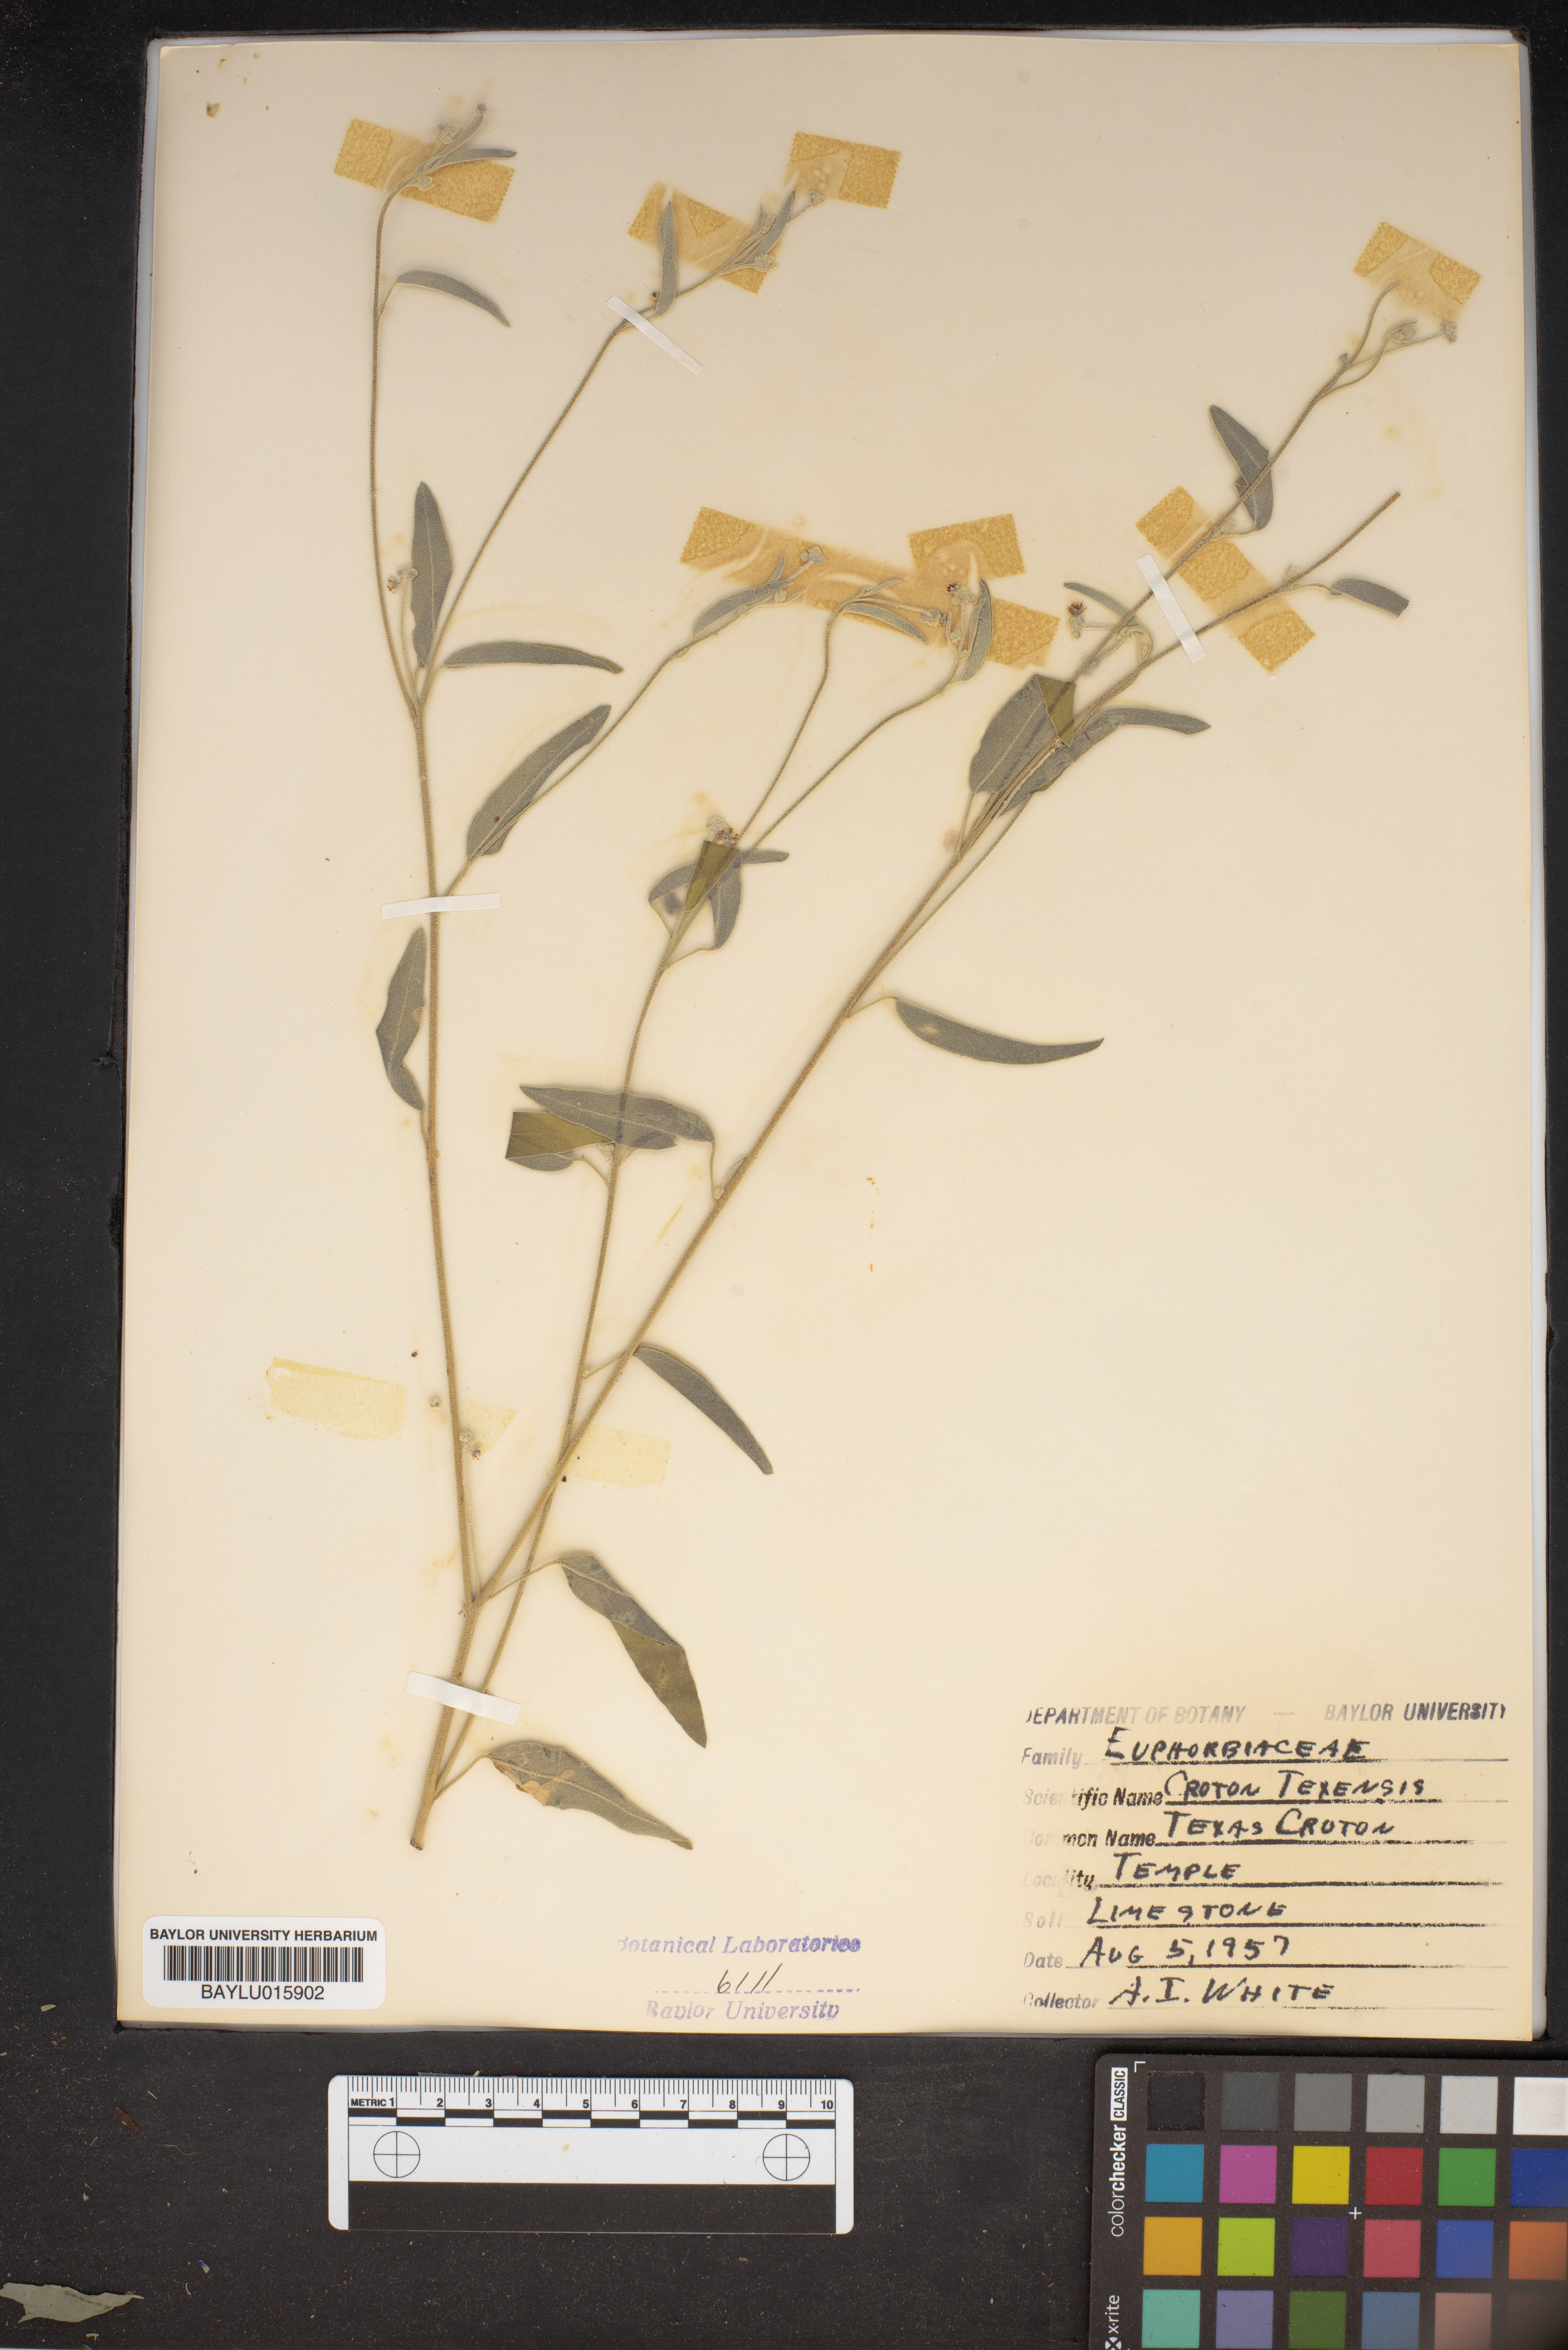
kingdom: Plantae
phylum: Tracheophyta
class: Magnoliopsida
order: Malpighiales
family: Euphorbiaceae
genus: Croton
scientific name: Croton texensis
